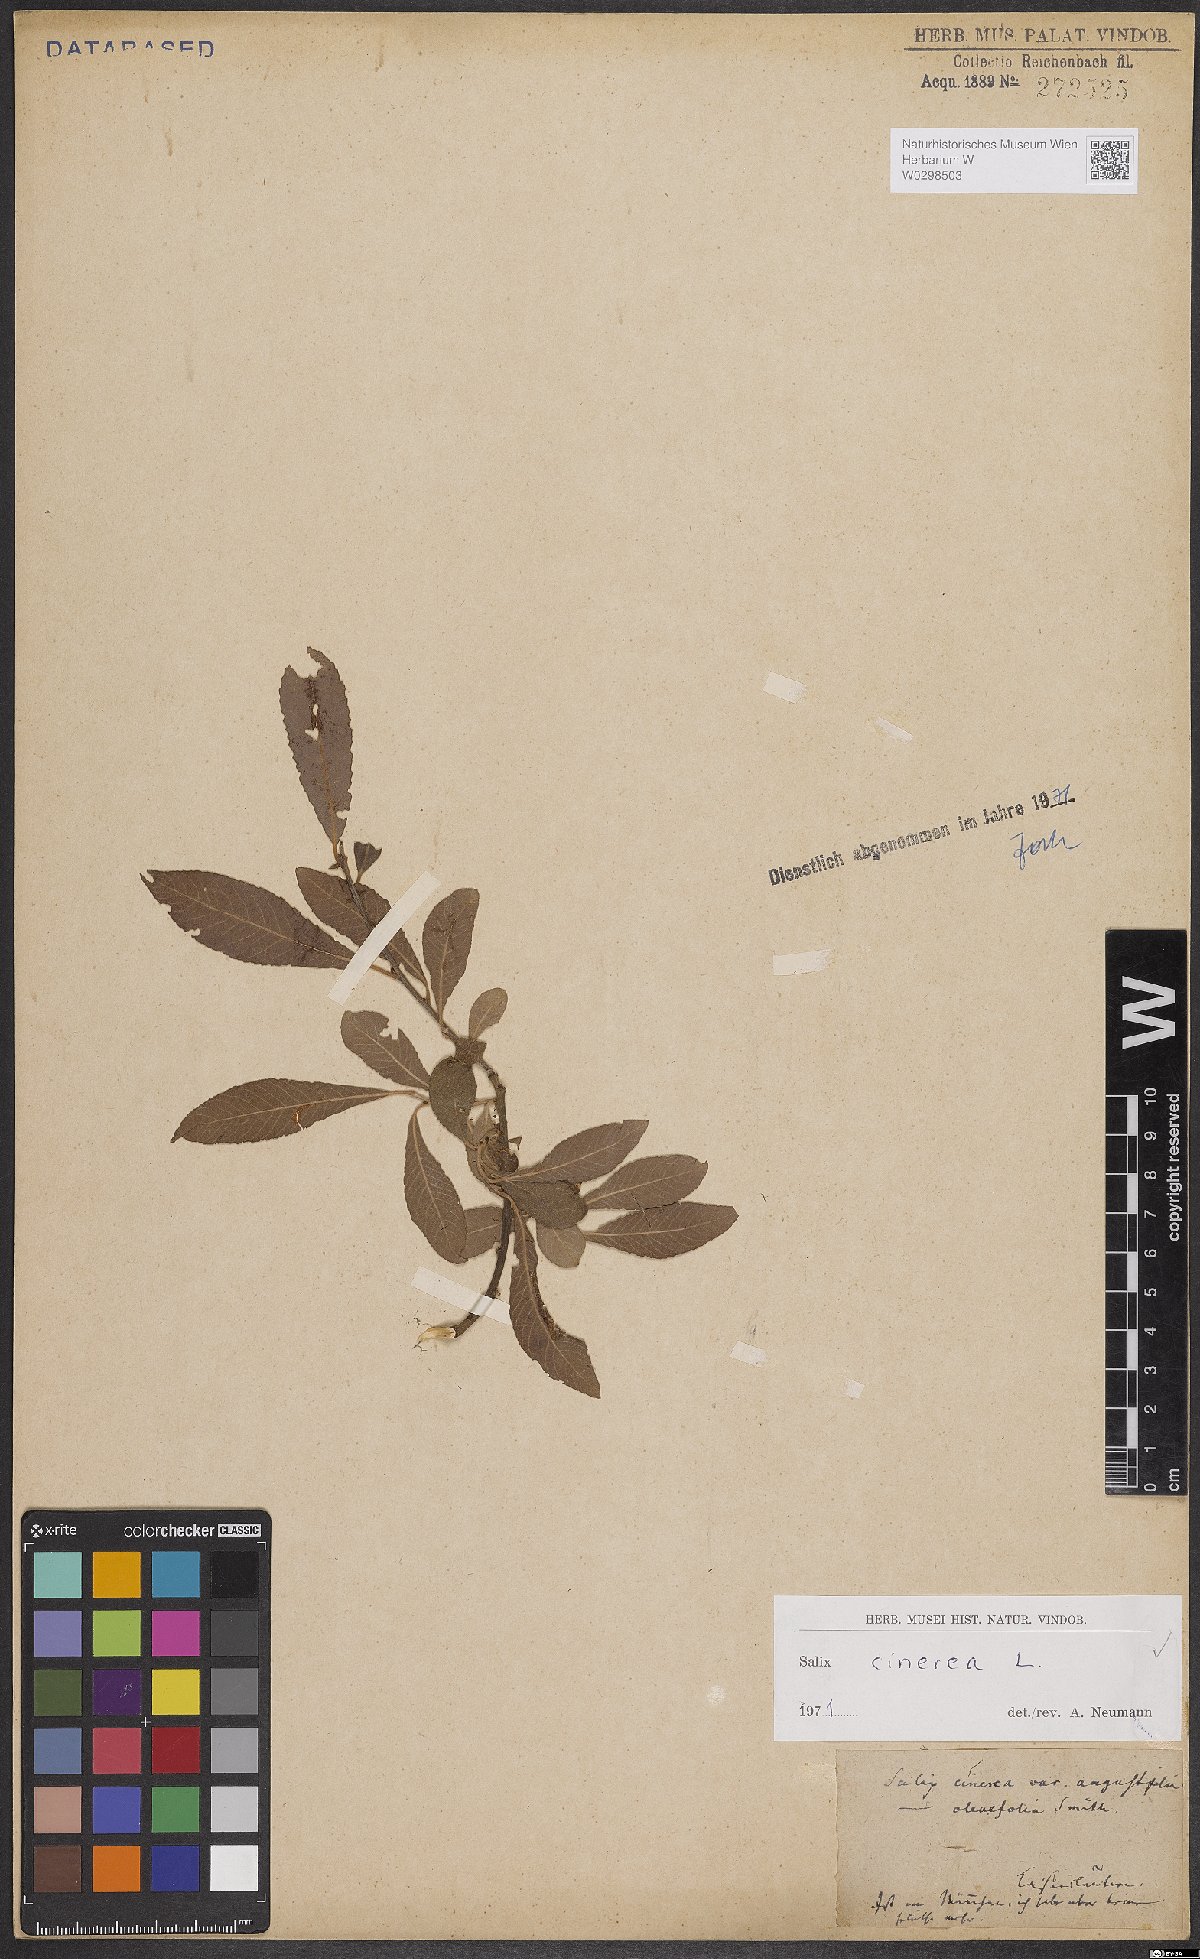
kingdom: Plantae
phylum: Tracheophyta
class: Magnoliopsida
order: Malpighiales
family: Salicaceae
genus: Salix
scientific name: Salix cinerea
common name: Common sallow
